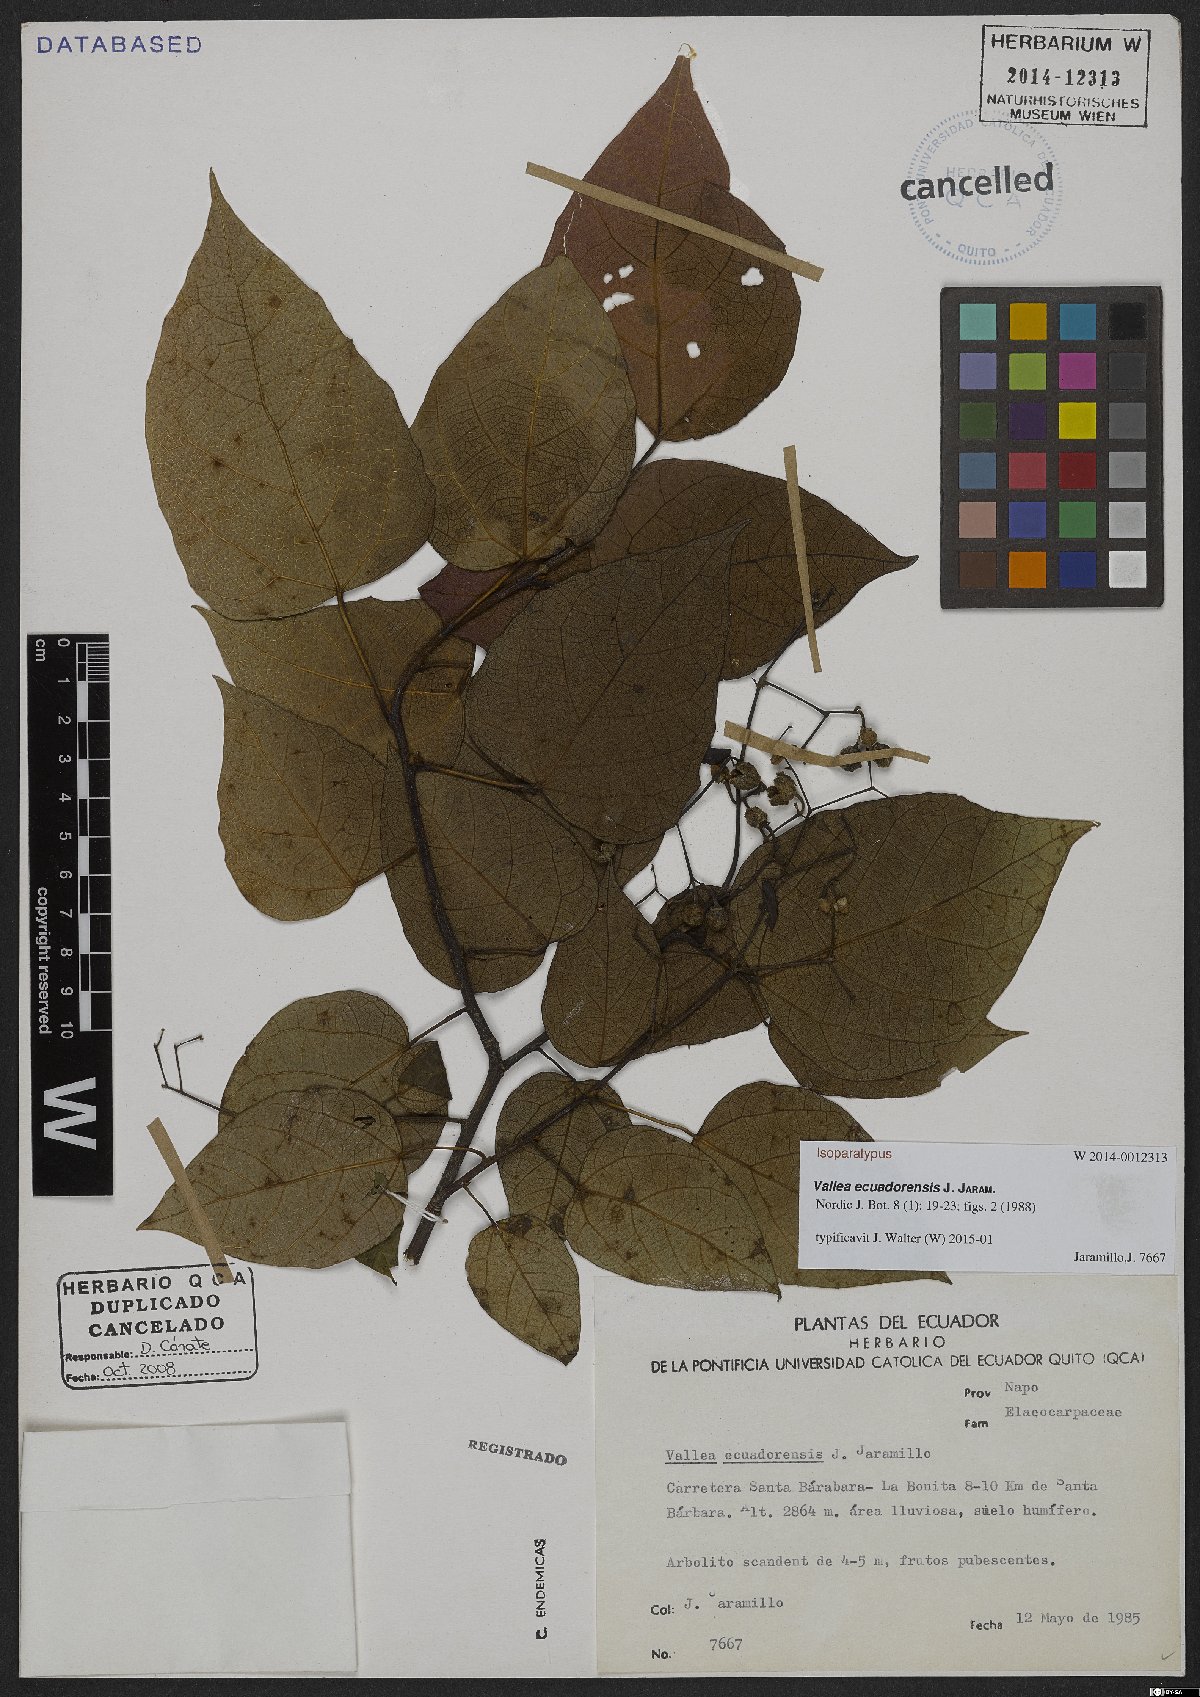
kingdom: Plantae
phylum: Tracheophyta
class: Magnoliopsida
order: Oxalidales
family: Elaeocarpaceae
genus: Vallea
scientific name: Vallea ecuadorensis
